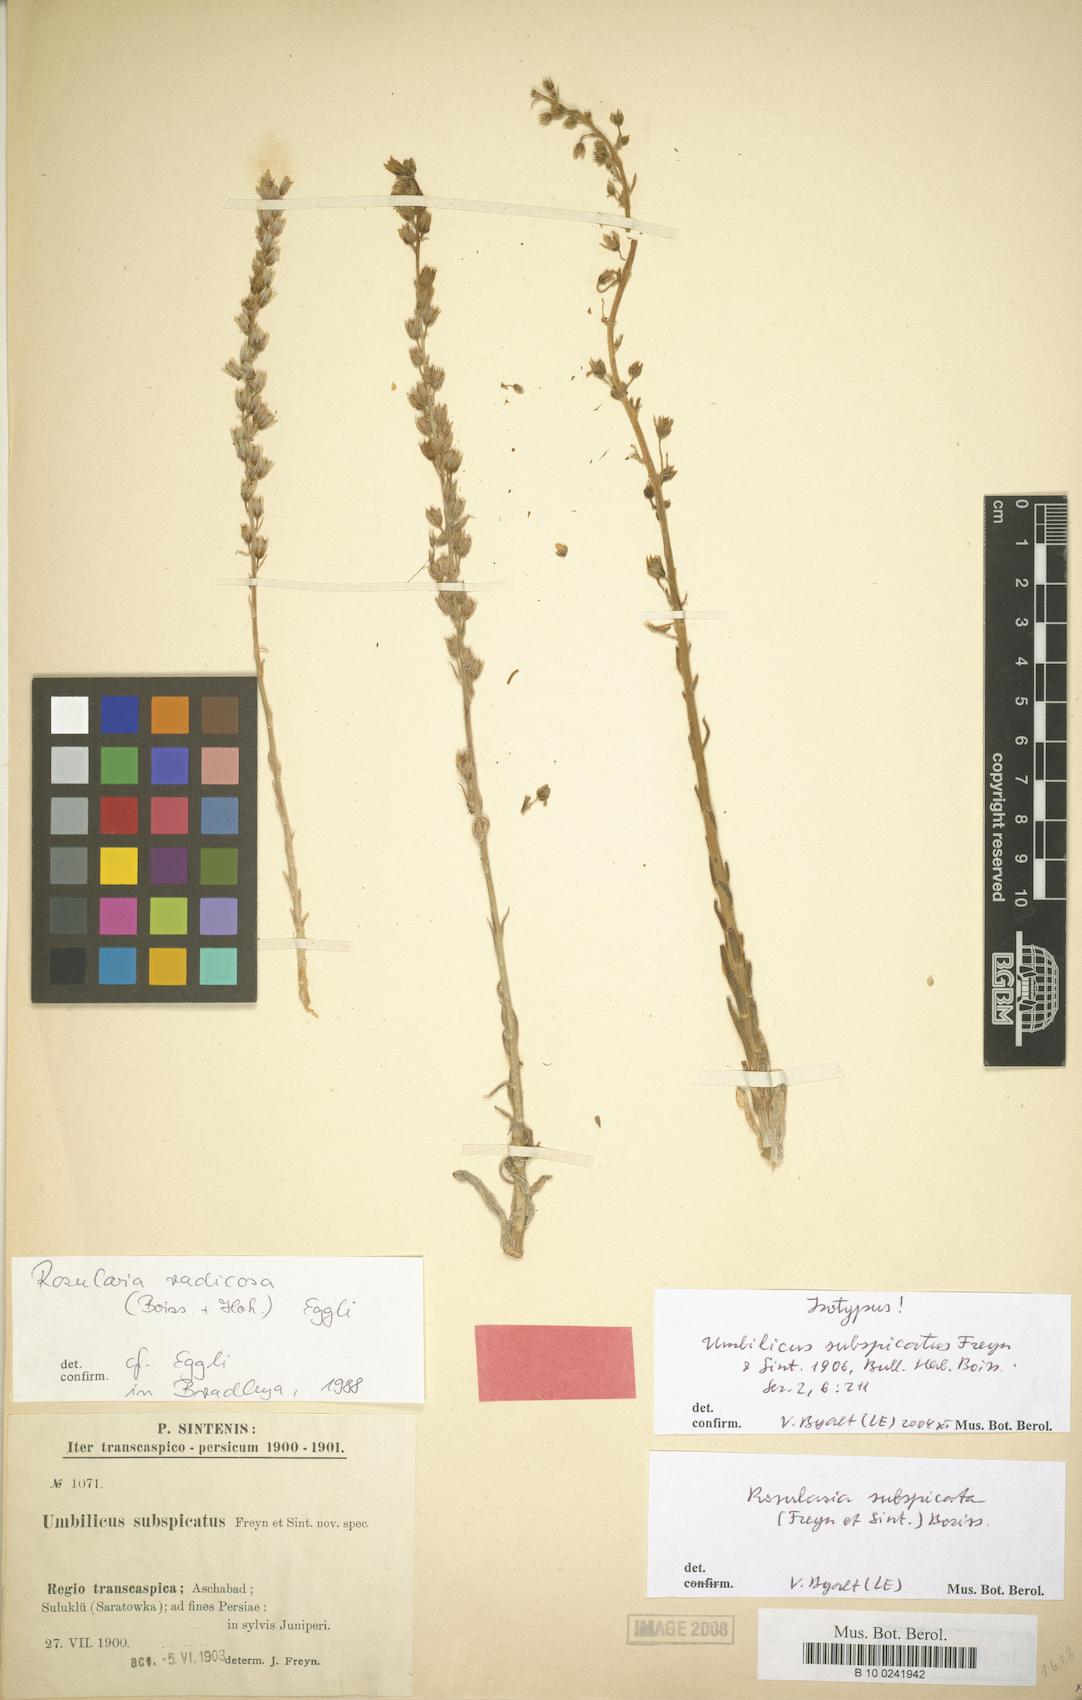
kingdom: Plantae
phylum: Tracheophyta
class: Magnoliopsida
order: Saxifragales
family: Crassulaceae
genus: Rosularia
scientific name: Rosularia radicosa
